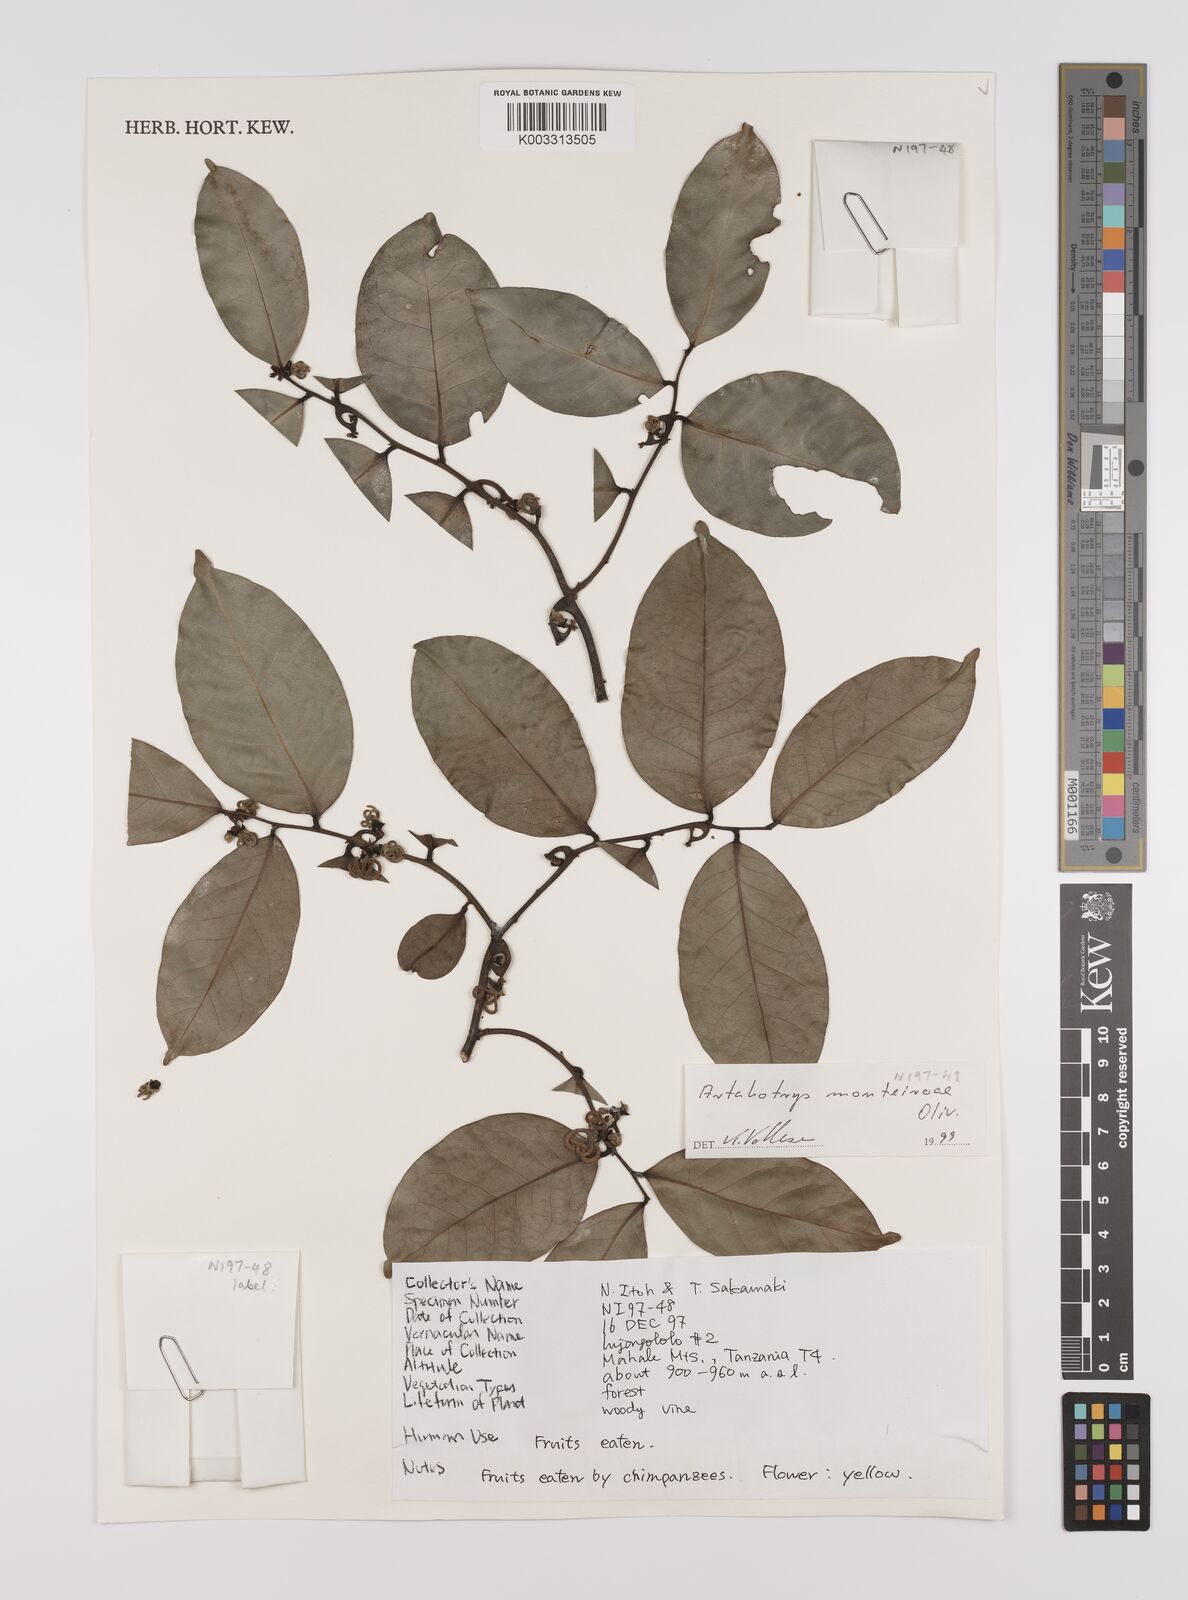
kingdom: Plantae
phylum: Tracheophyta
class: Magnoliopsida
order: Magnoliales
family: Annonaceae
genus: Artabotrys
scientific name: Artabotrys monteiroae
